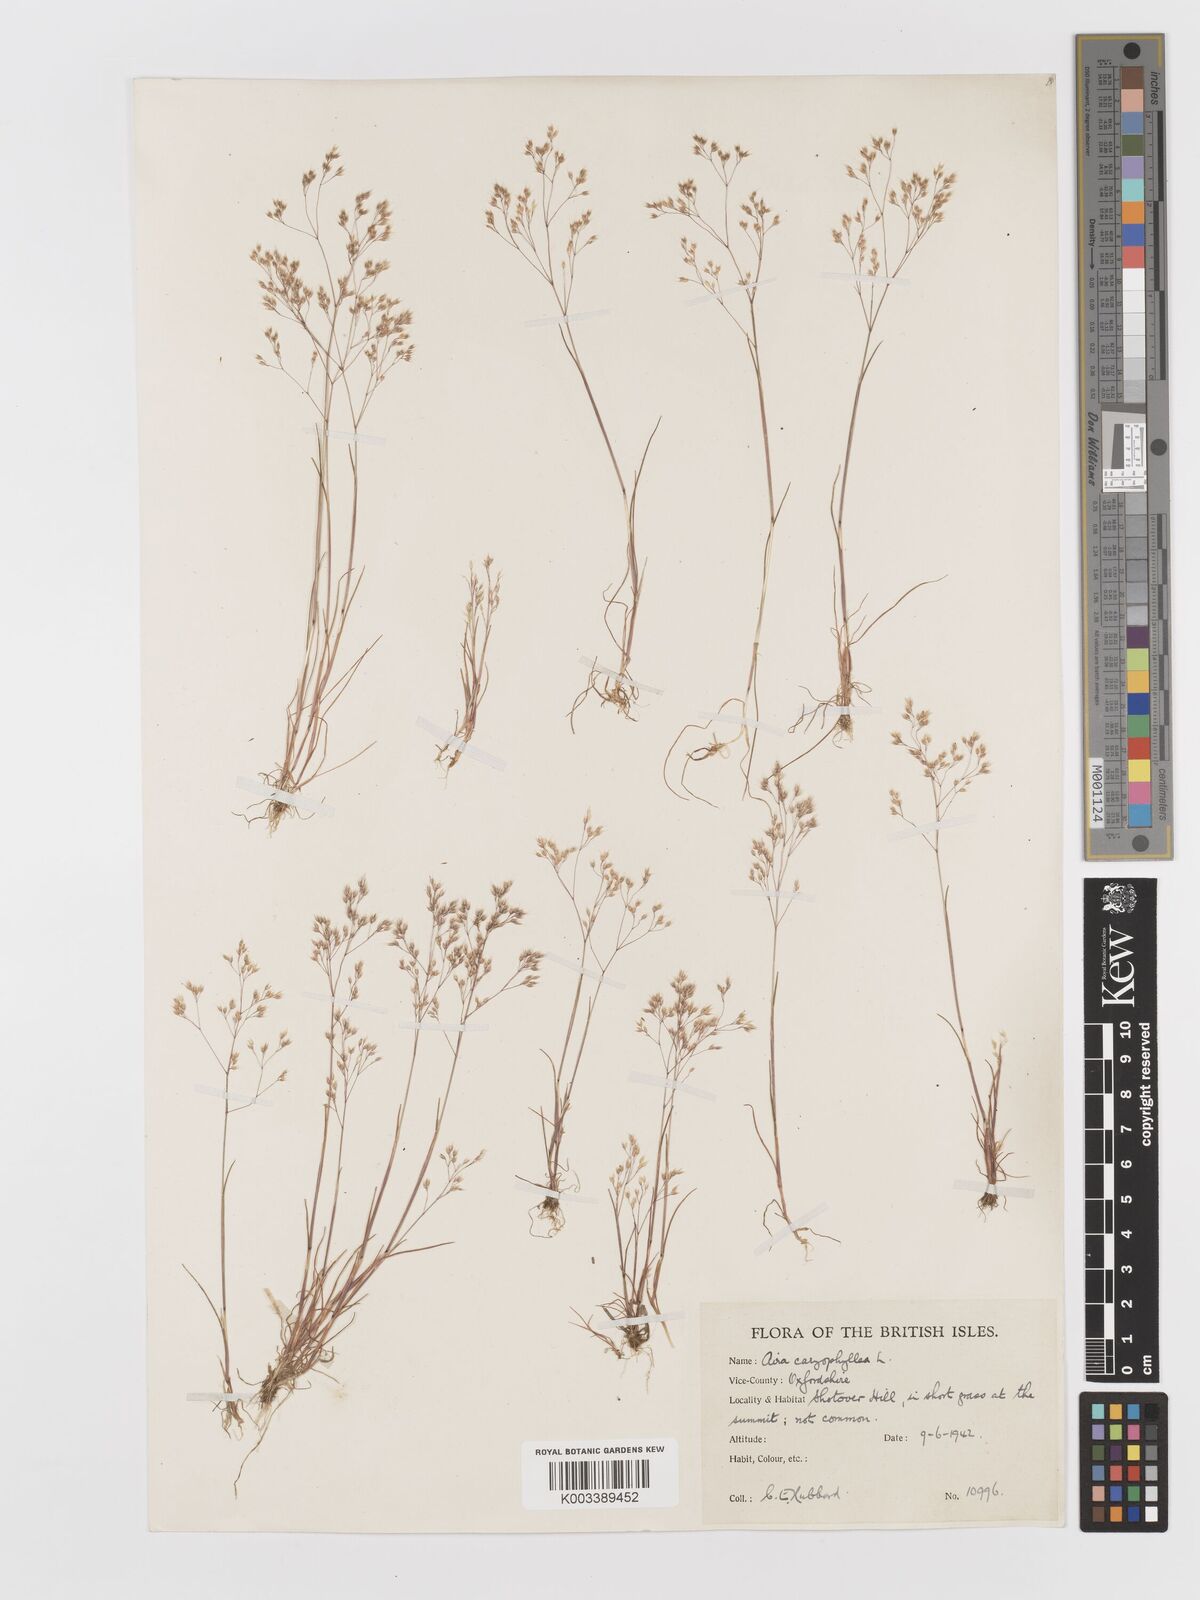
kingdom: Plantae
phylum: Tracheophyta
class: Liliopsida
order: Poales
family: Poaceae
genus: Aira
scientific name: Aira caryophyllea
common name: Silver hairgrass
